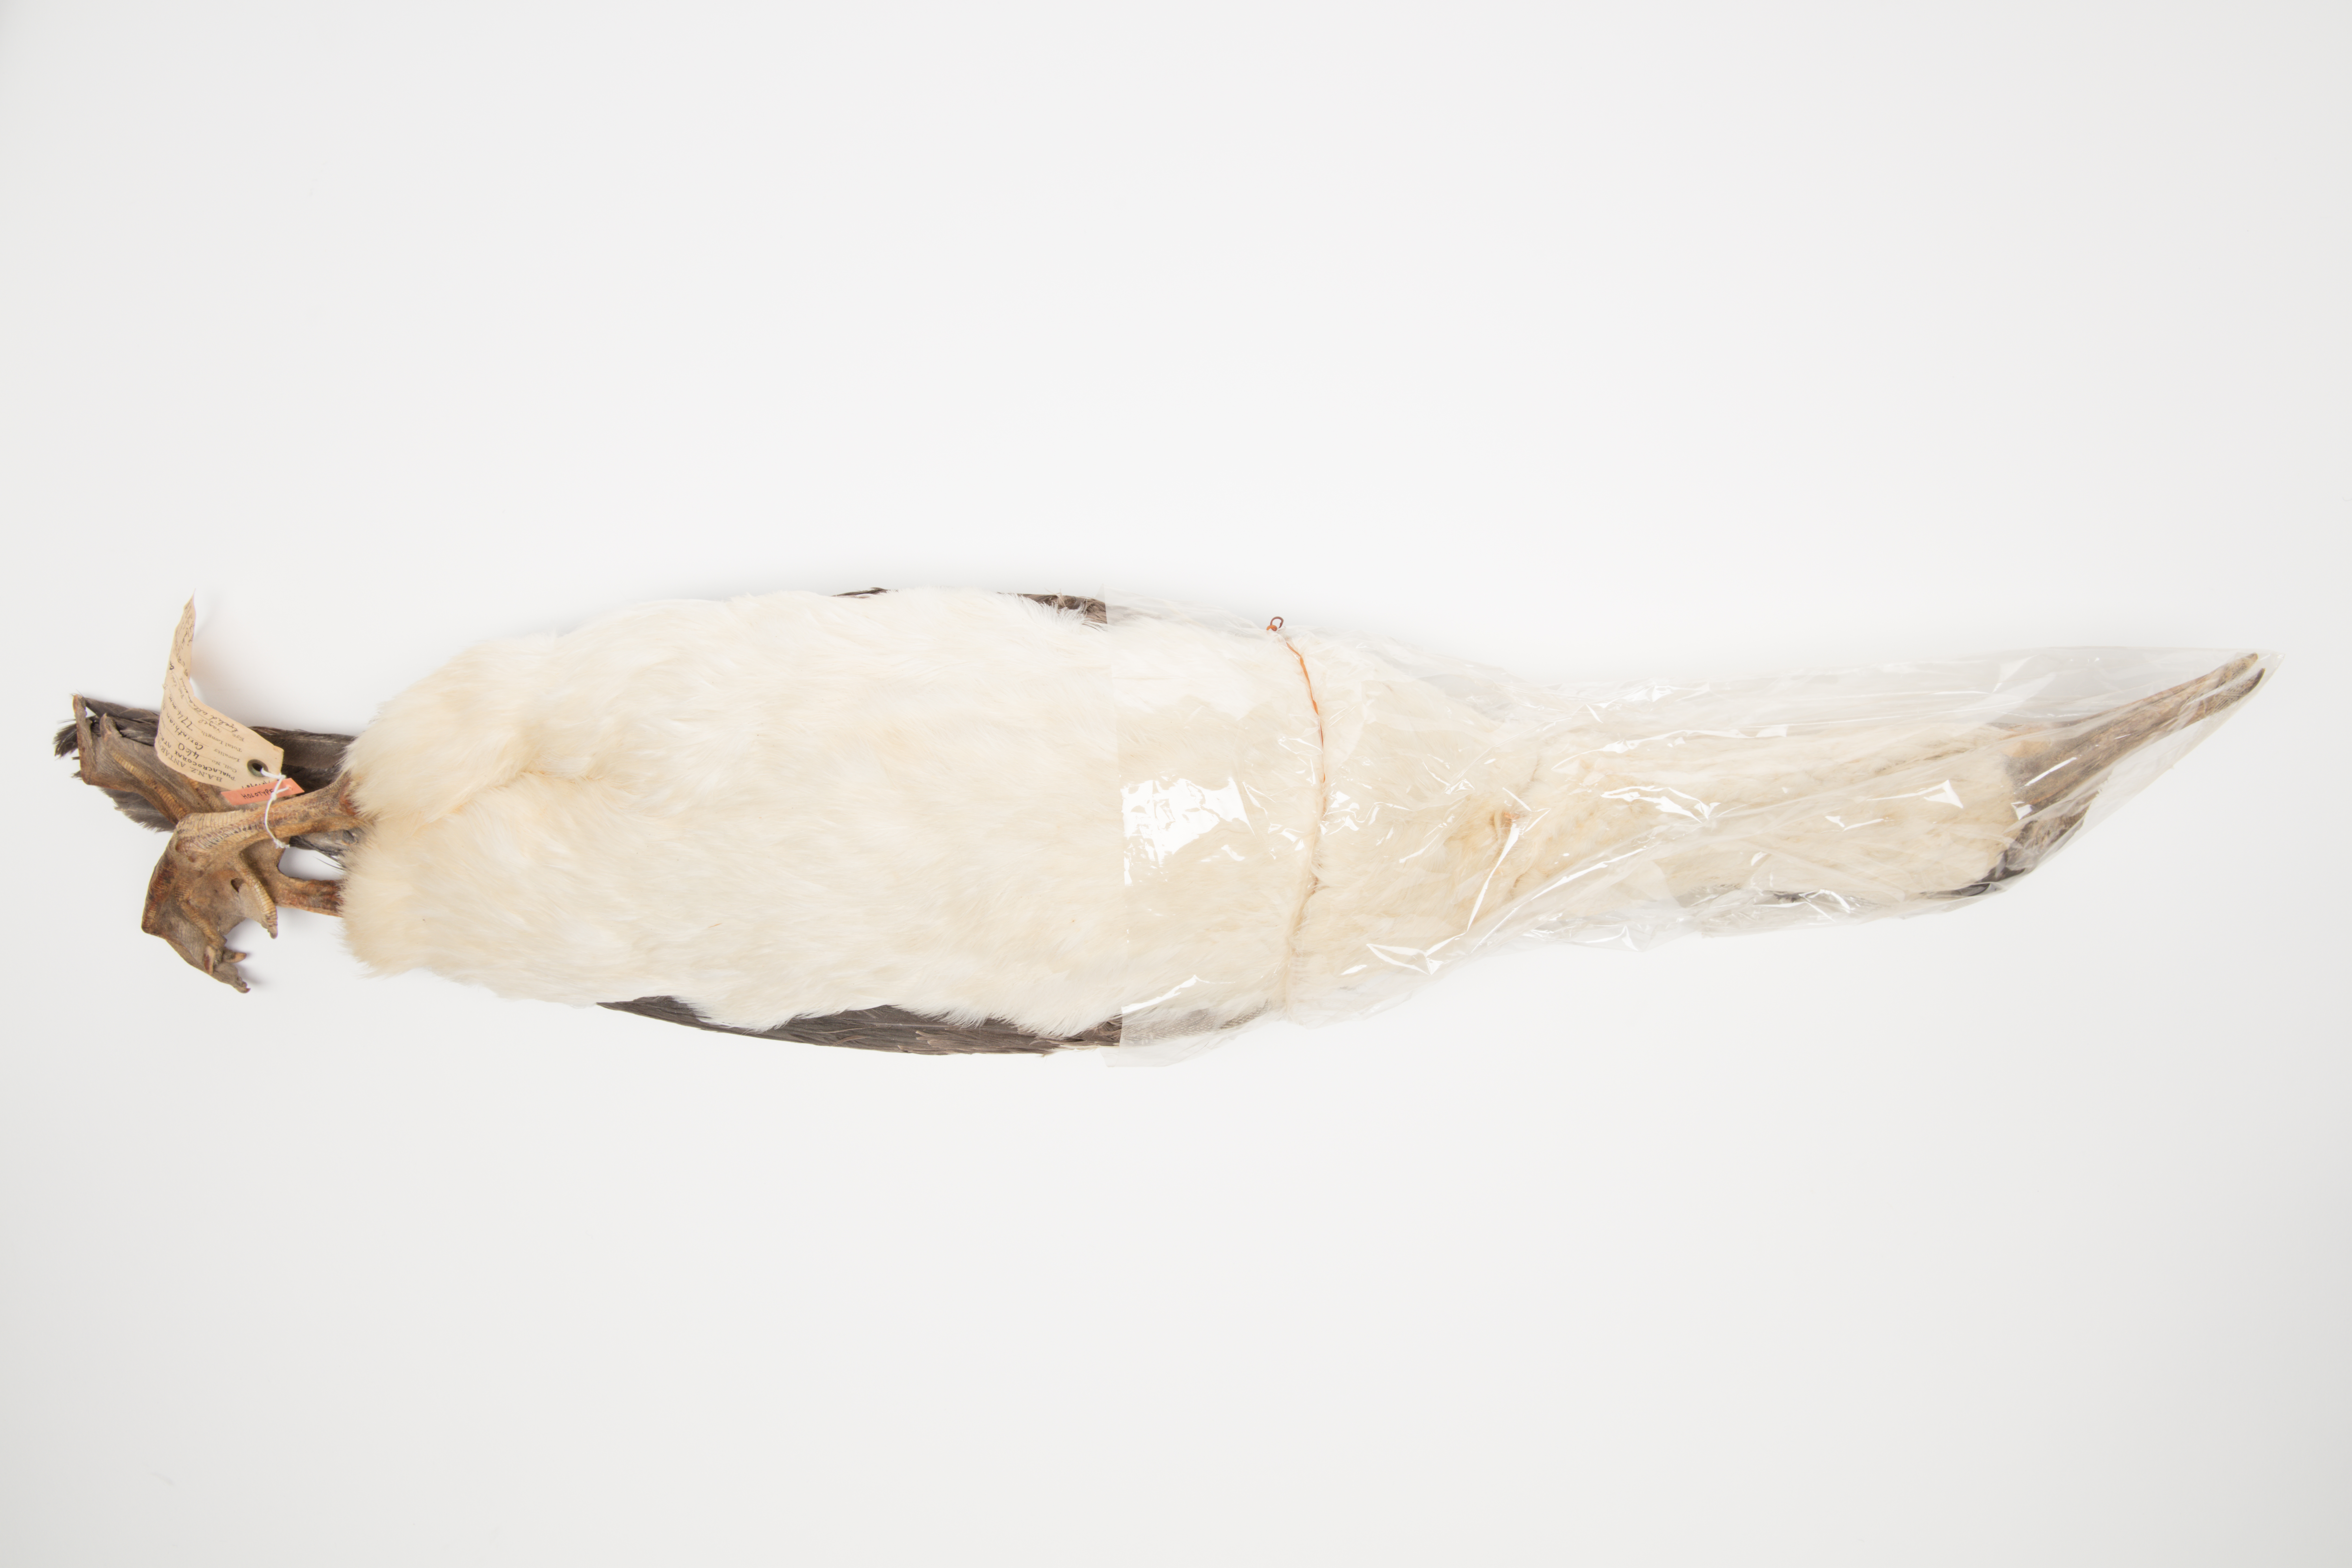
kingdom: Animalia
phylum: Chordata
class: Aves
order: Suliformes
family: Phalacrocoracidae
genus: Leucocarbo
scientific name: Leucocarbo atriceps
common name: Imperial shag
